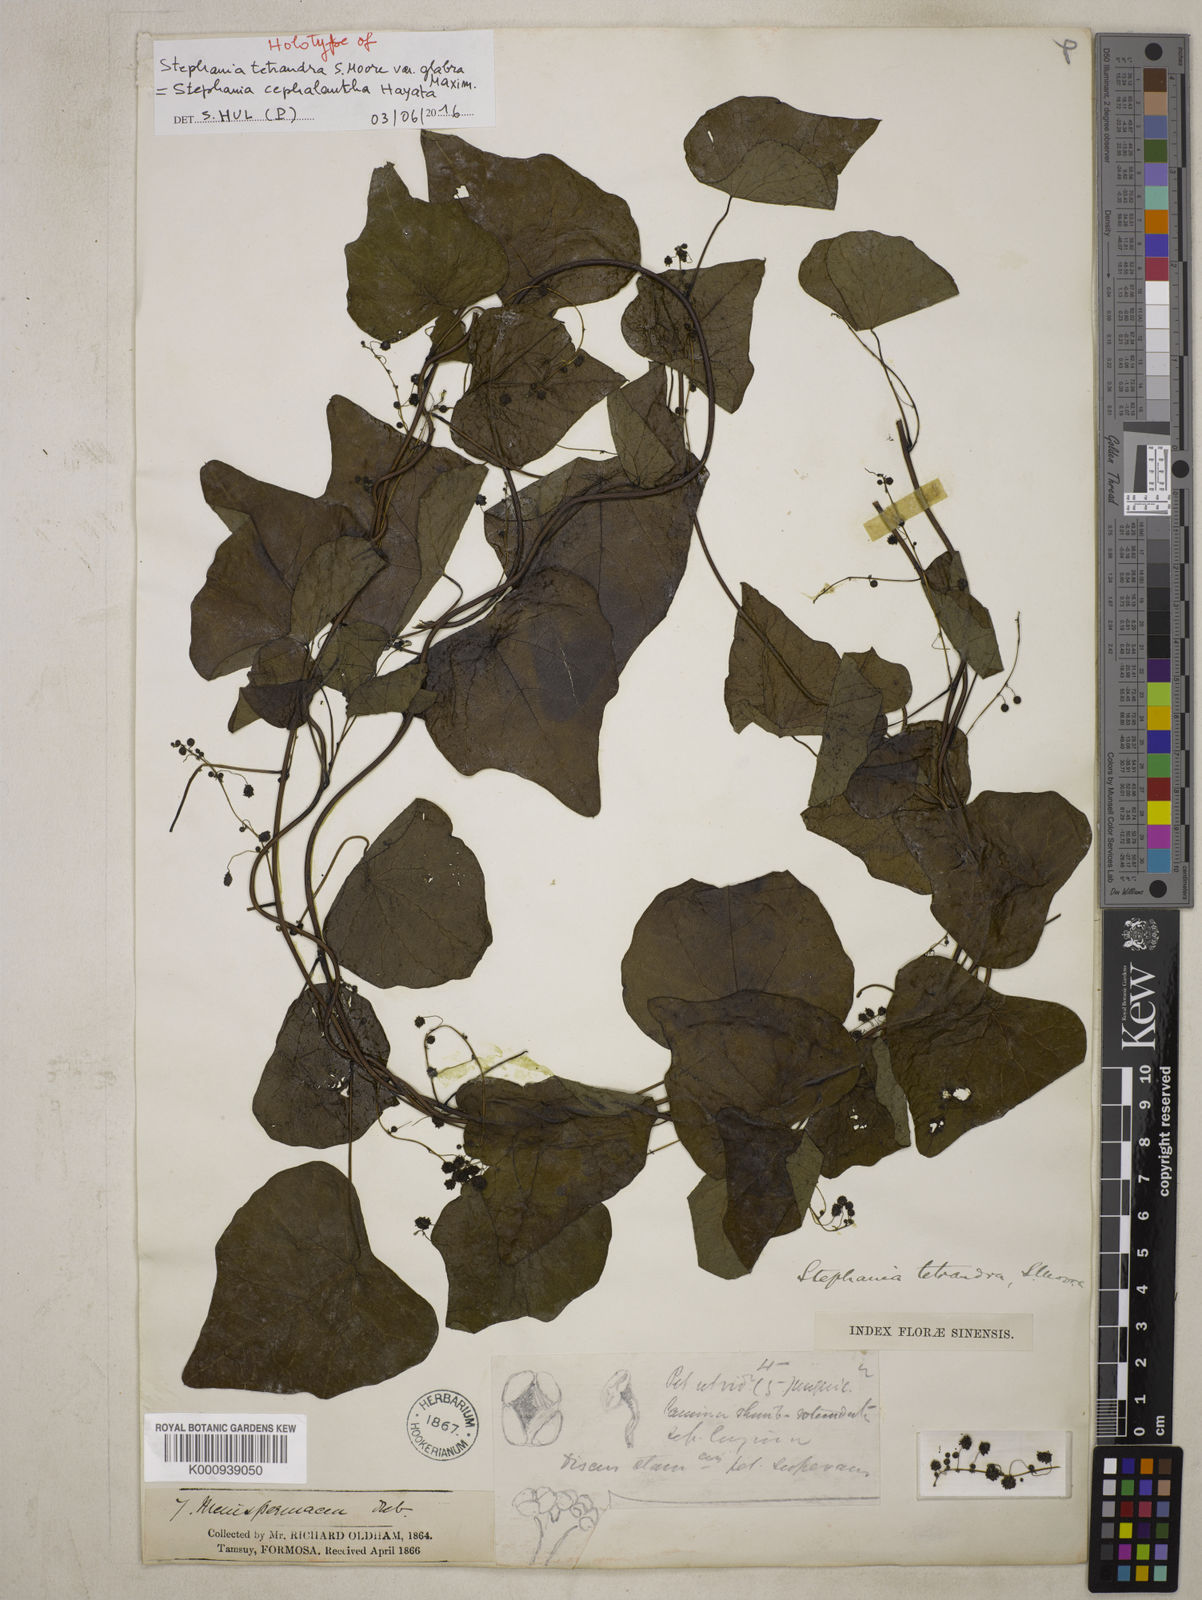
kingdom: Plantae
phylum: Tracheophyta
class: Magnoliopsida
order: Ranunculales
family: Menispermaceae
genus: Stephania
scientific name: Stephania cephalantha
